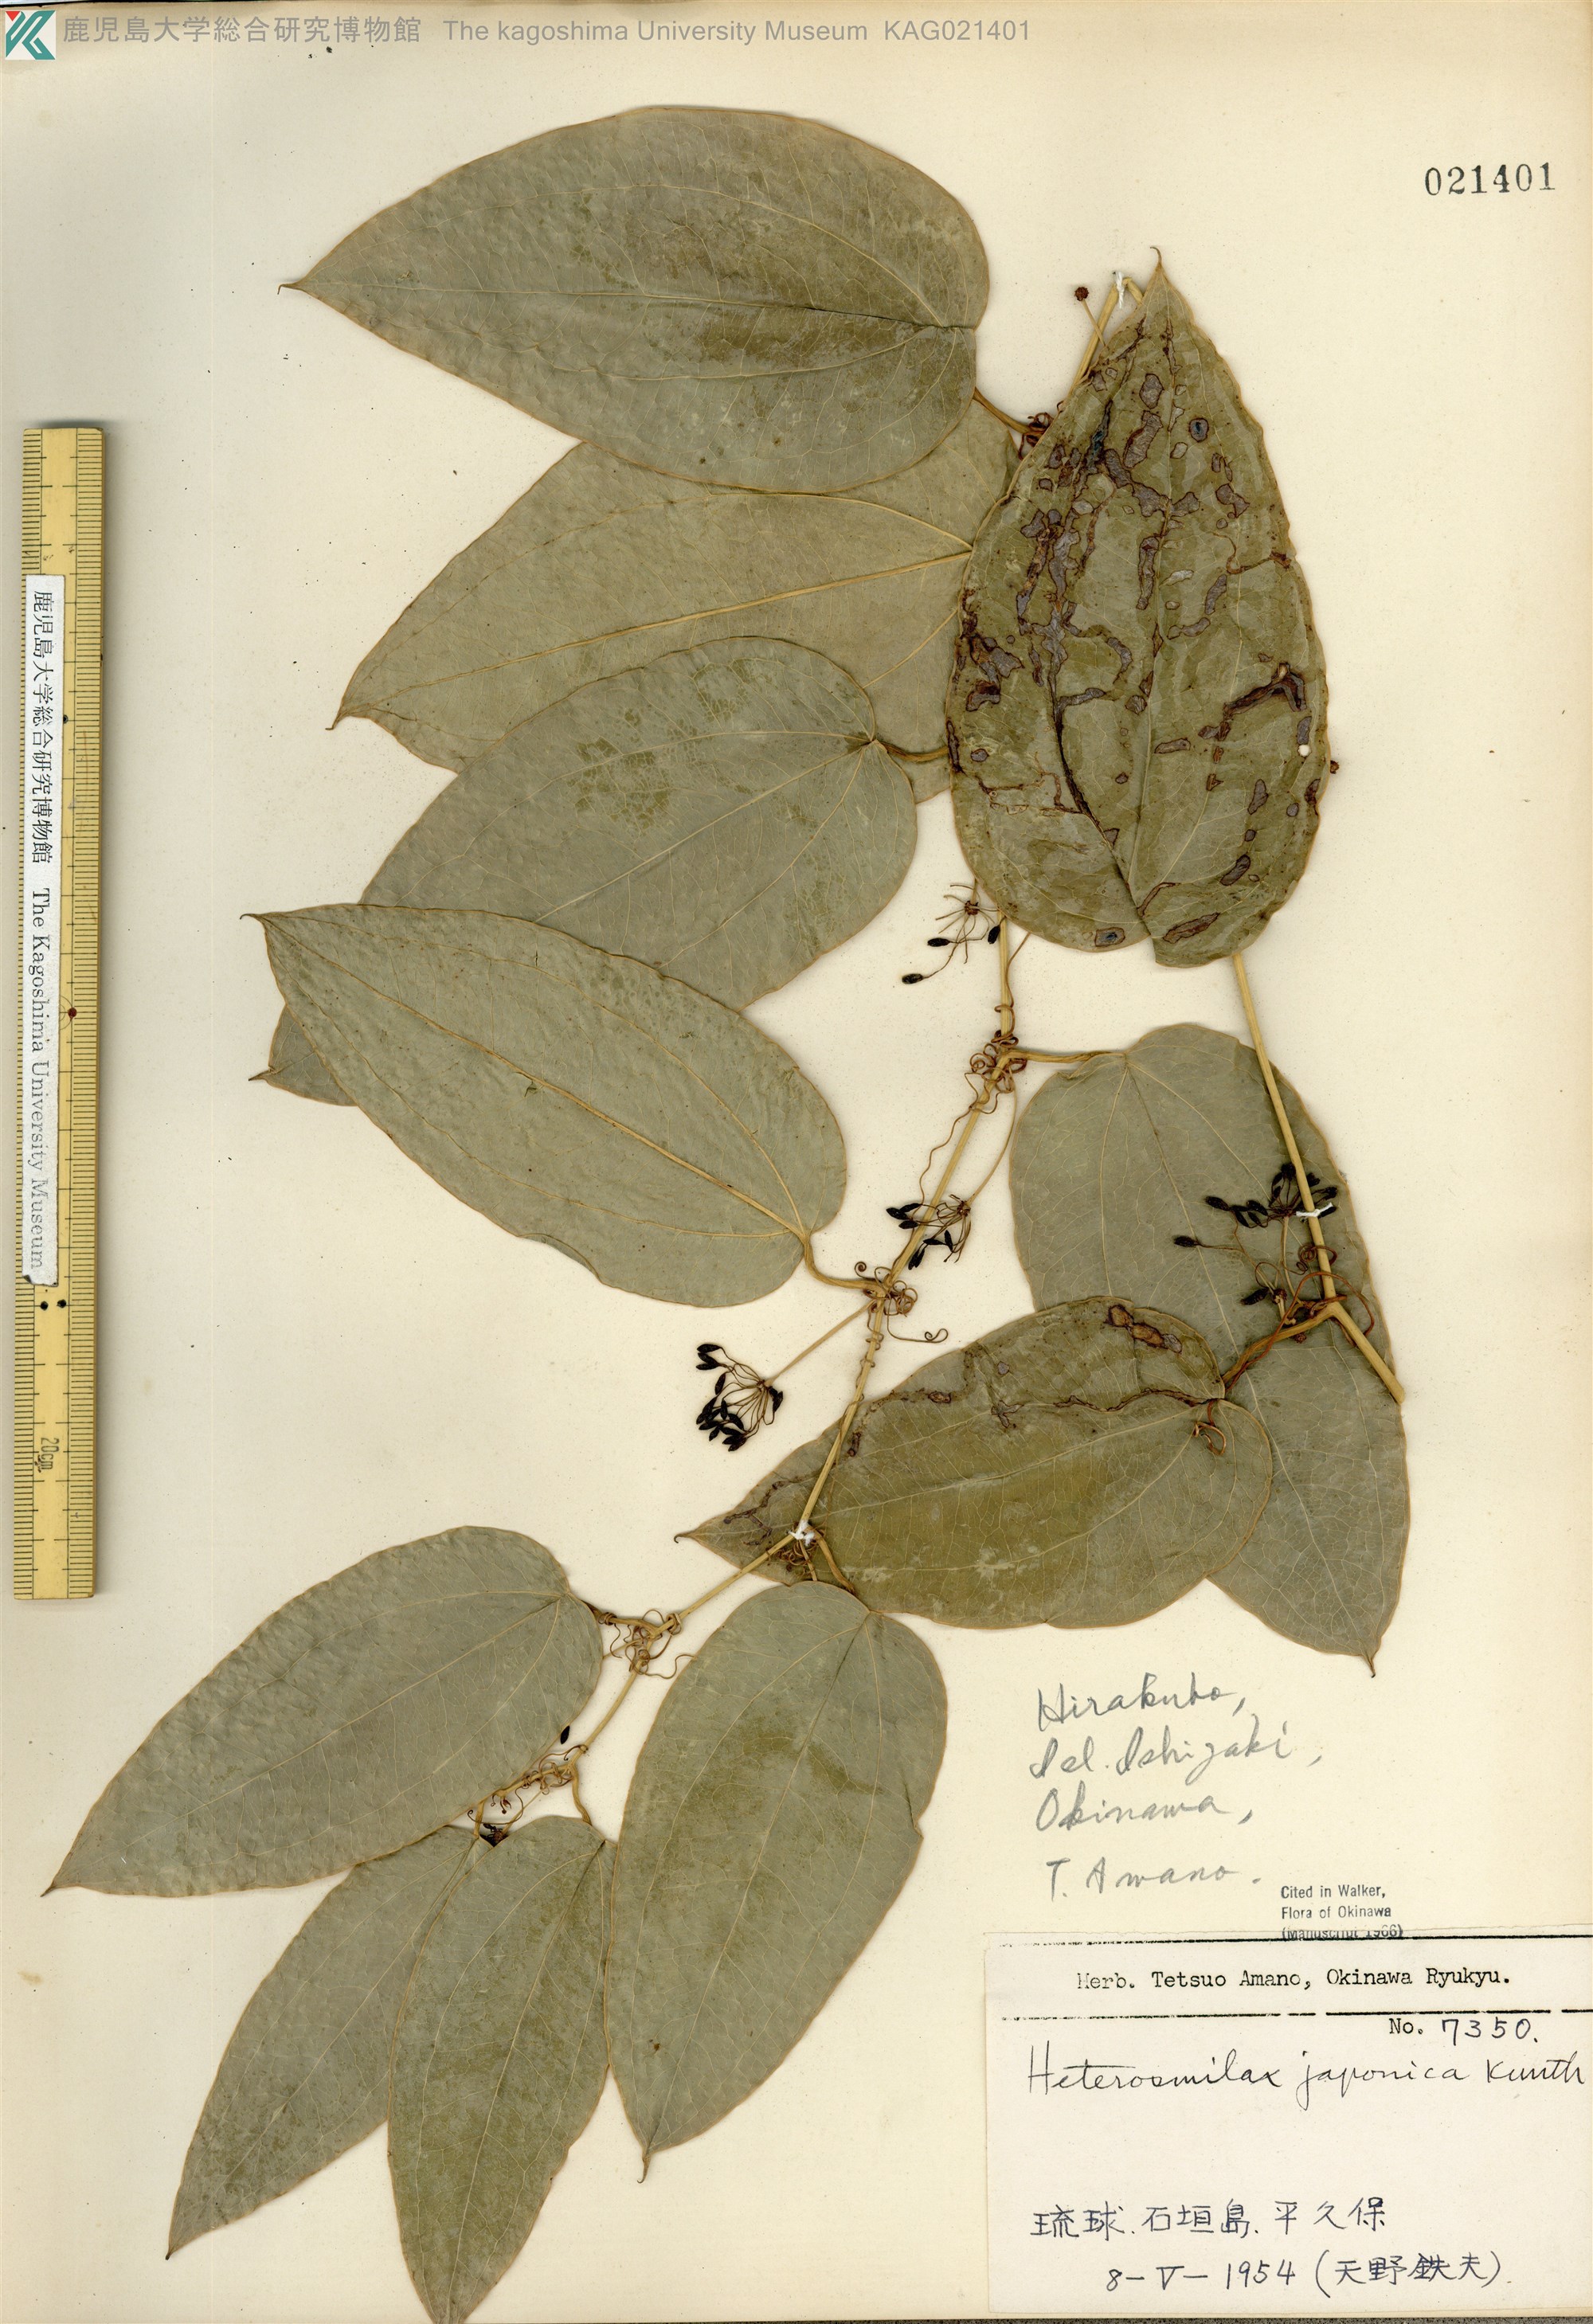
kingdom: Plantae
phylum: Tracheophyta
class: Liliopsida
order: Liliales
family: Smilacaceae
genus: Smilax
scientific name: Smilax insularis
